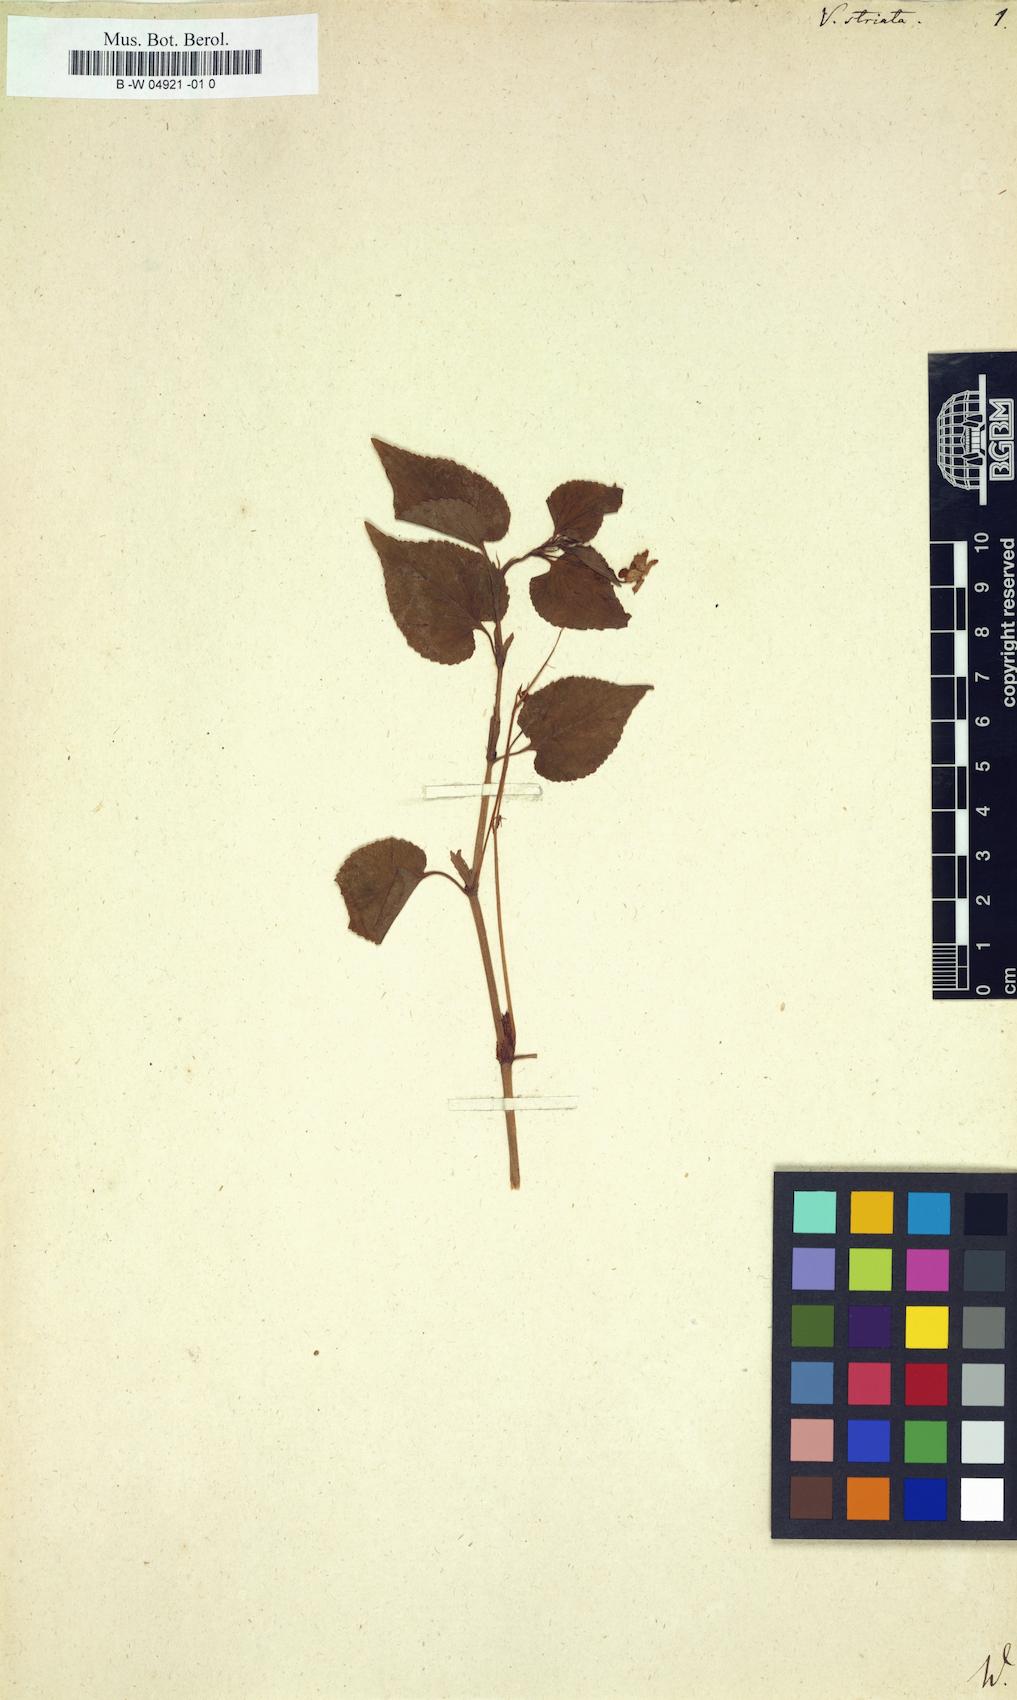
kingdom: Plantae
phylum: Tracheophyta
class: Magnoliopsida
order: Malpighiales
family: Violaceae
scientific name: Violaceae
